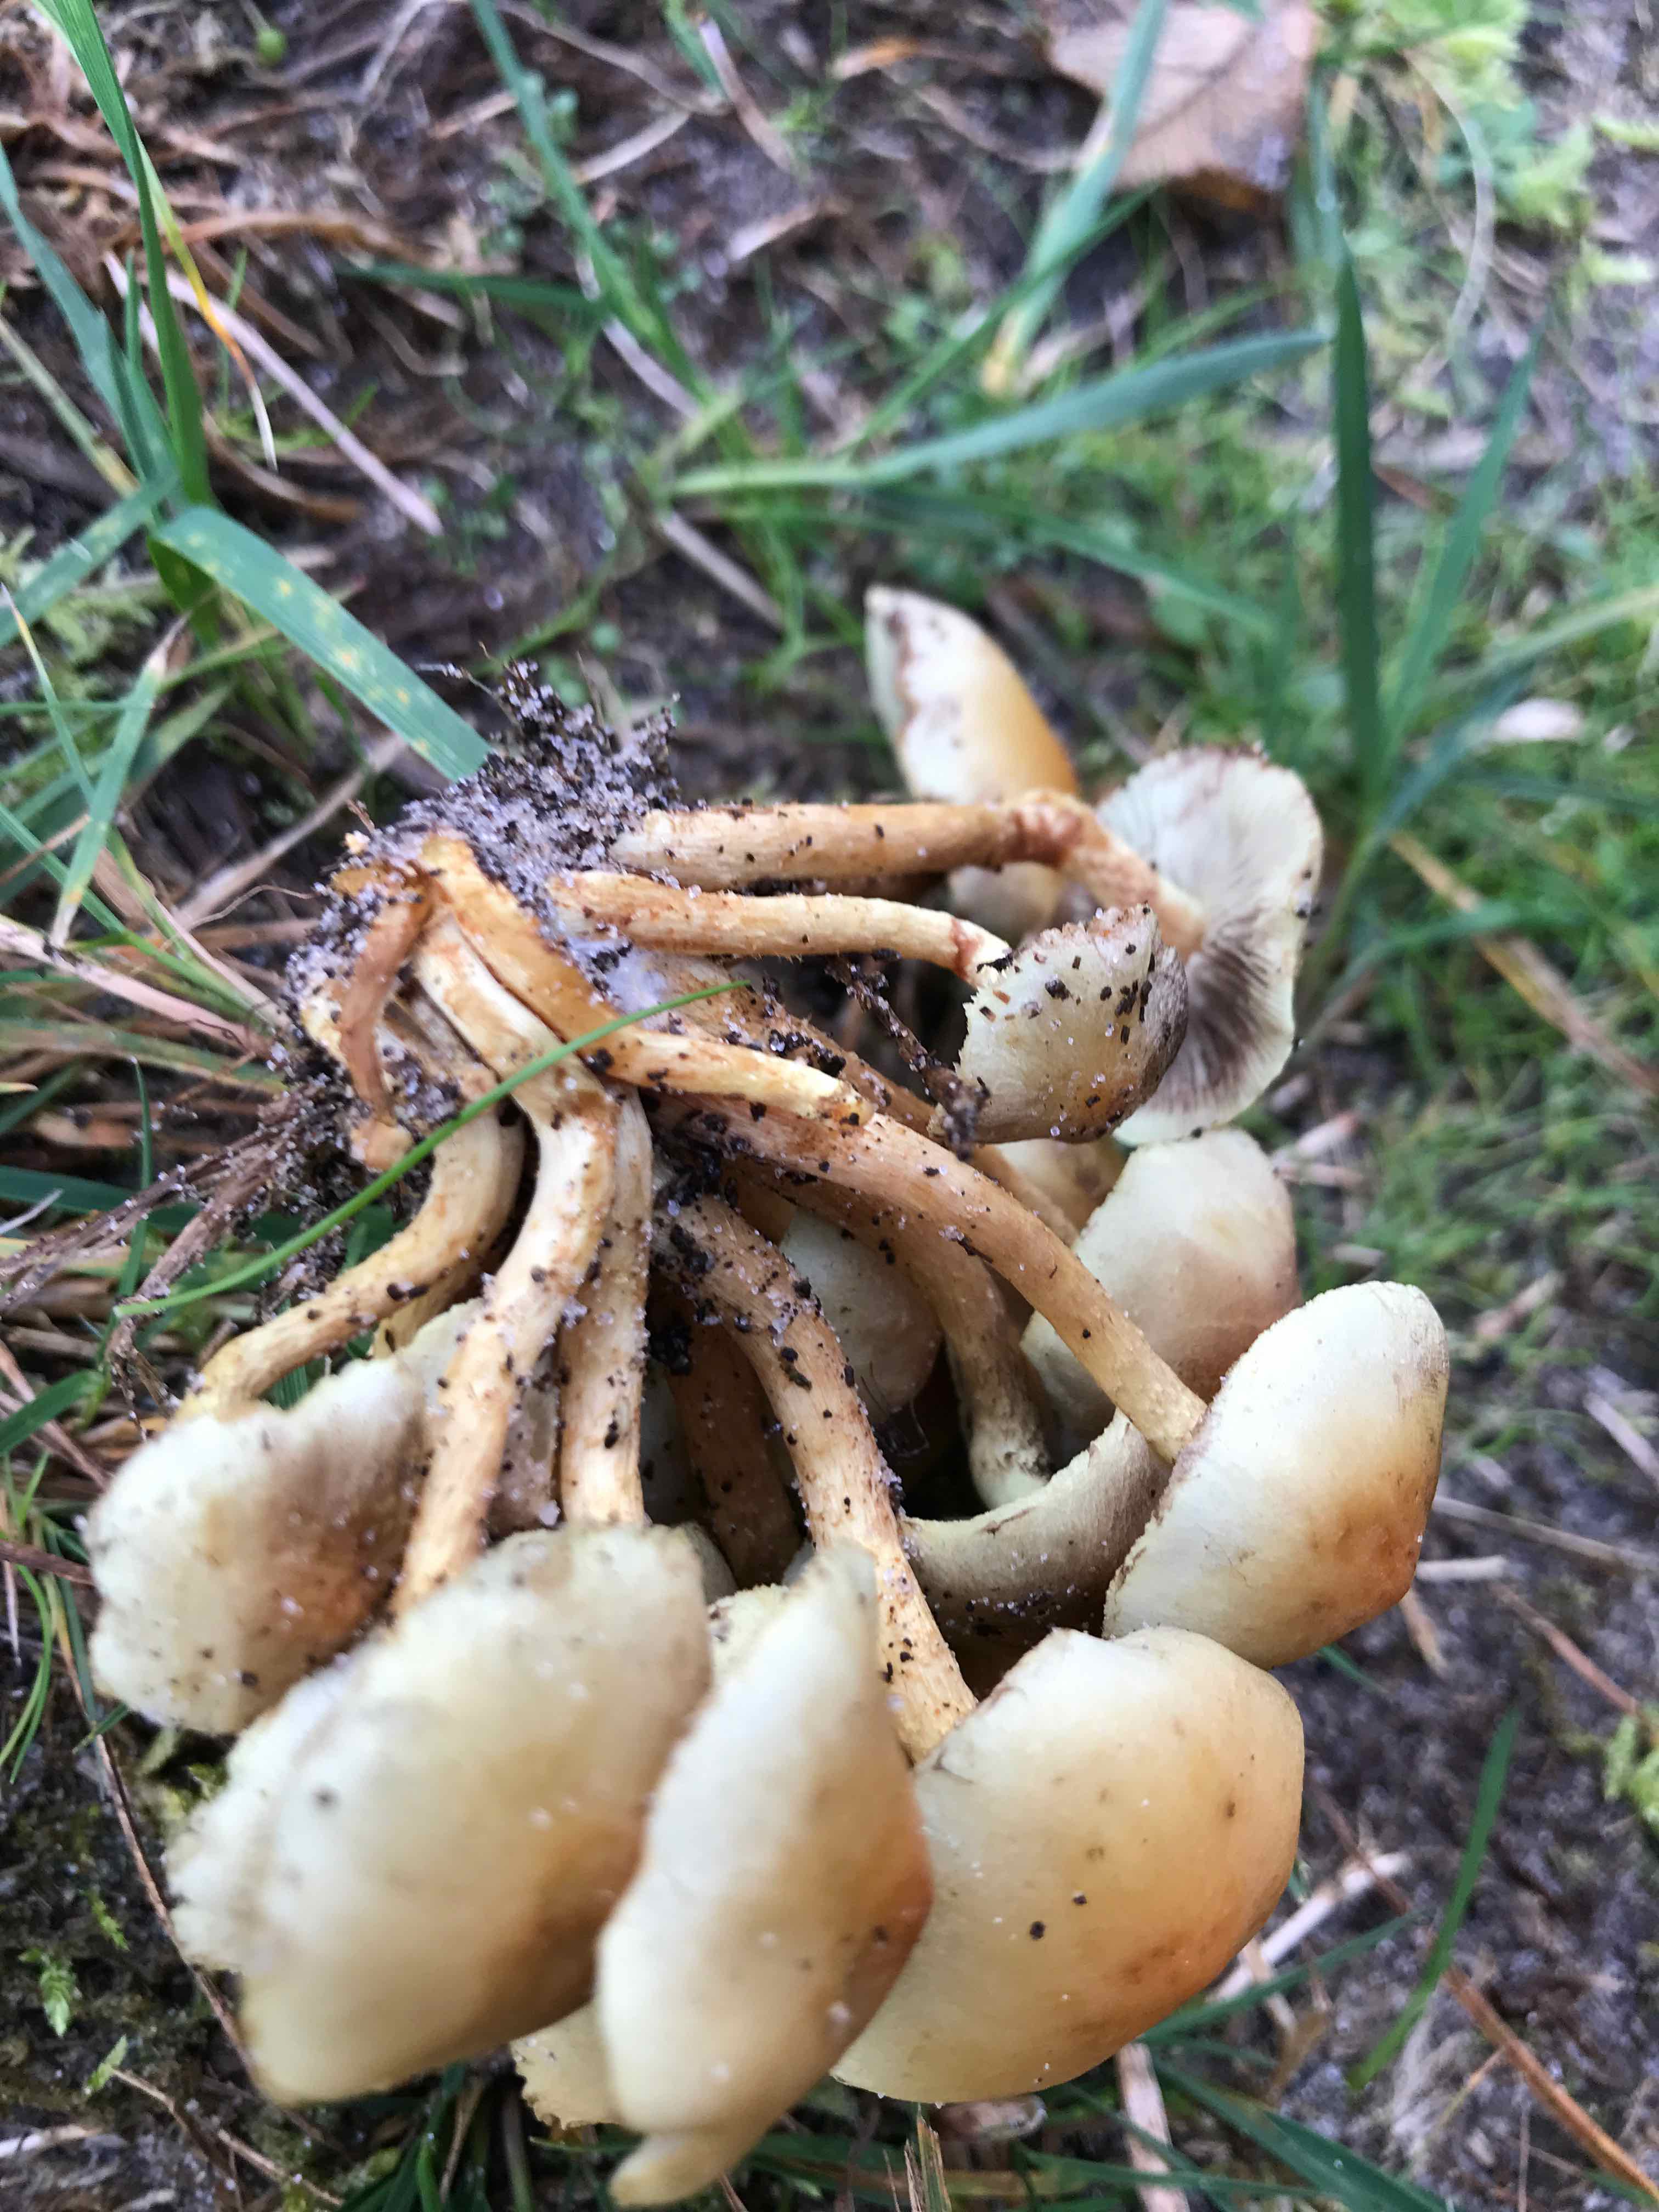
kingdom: Fungi
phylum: Basidiomycota
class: Agaricomycetes
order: Agaricales
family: Strophariaceae
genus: Hypholoma
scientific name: Hypholoma fasciculare
